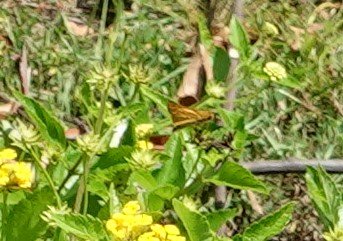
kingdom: Animalia
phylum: Arthropoda
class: Insecta
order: Lepidoptera
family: Hesperiidae
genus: Hylephila
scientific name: Hylephila phyleus
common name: Fiery Skipper
